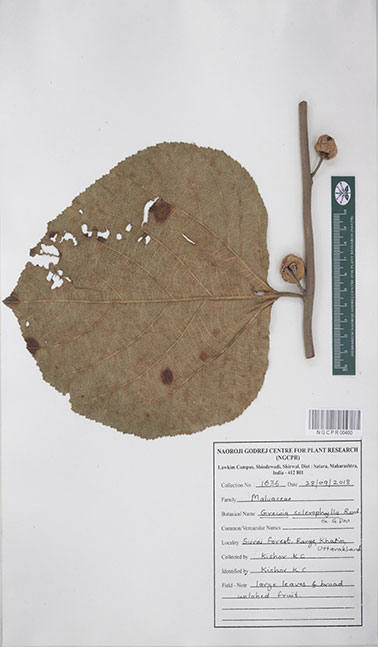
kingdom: Plantae
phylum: Tracheophyta
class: Magnoliopsida
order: Malvales
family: Malvaceae
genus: Grewia
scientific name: Grewia sclerophylla
